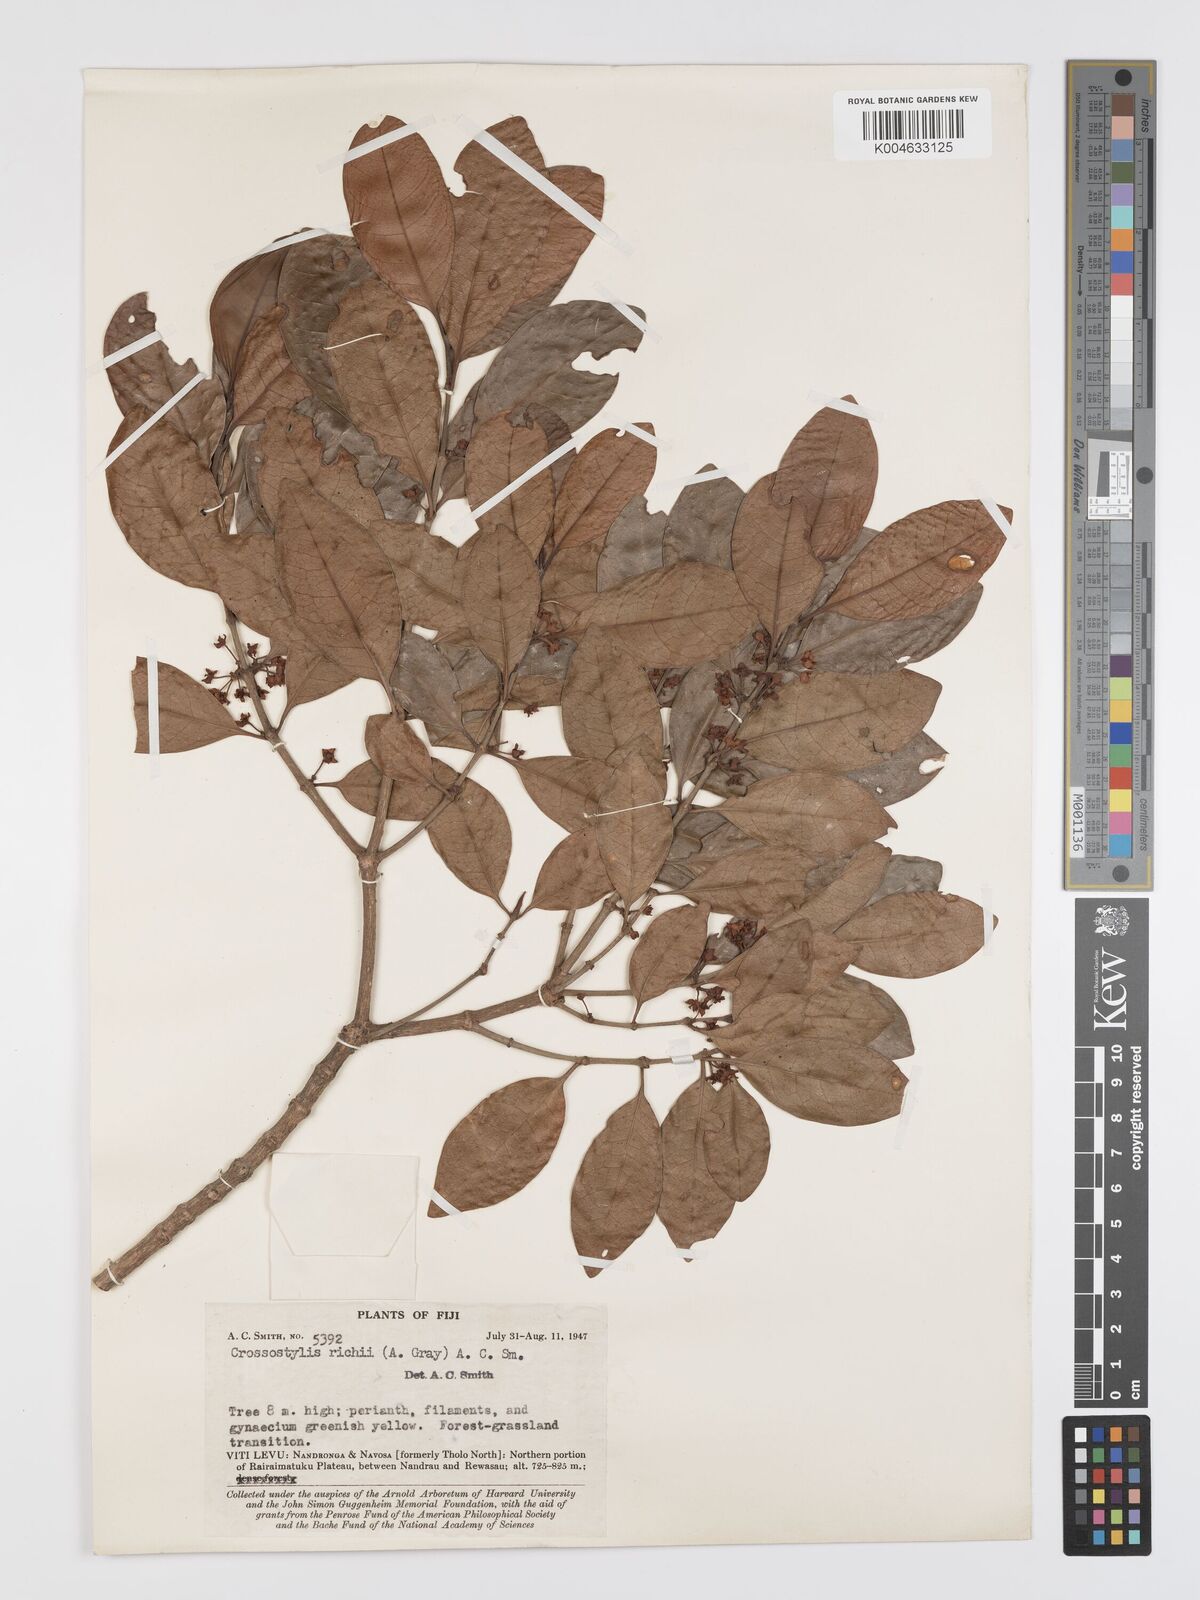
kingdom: Plantae
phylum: Tracheophyta
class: Magnoliopsida
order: Malpighiales
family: Rhizophoraceae
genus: Crossostylis
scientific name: Crossostylis richii
